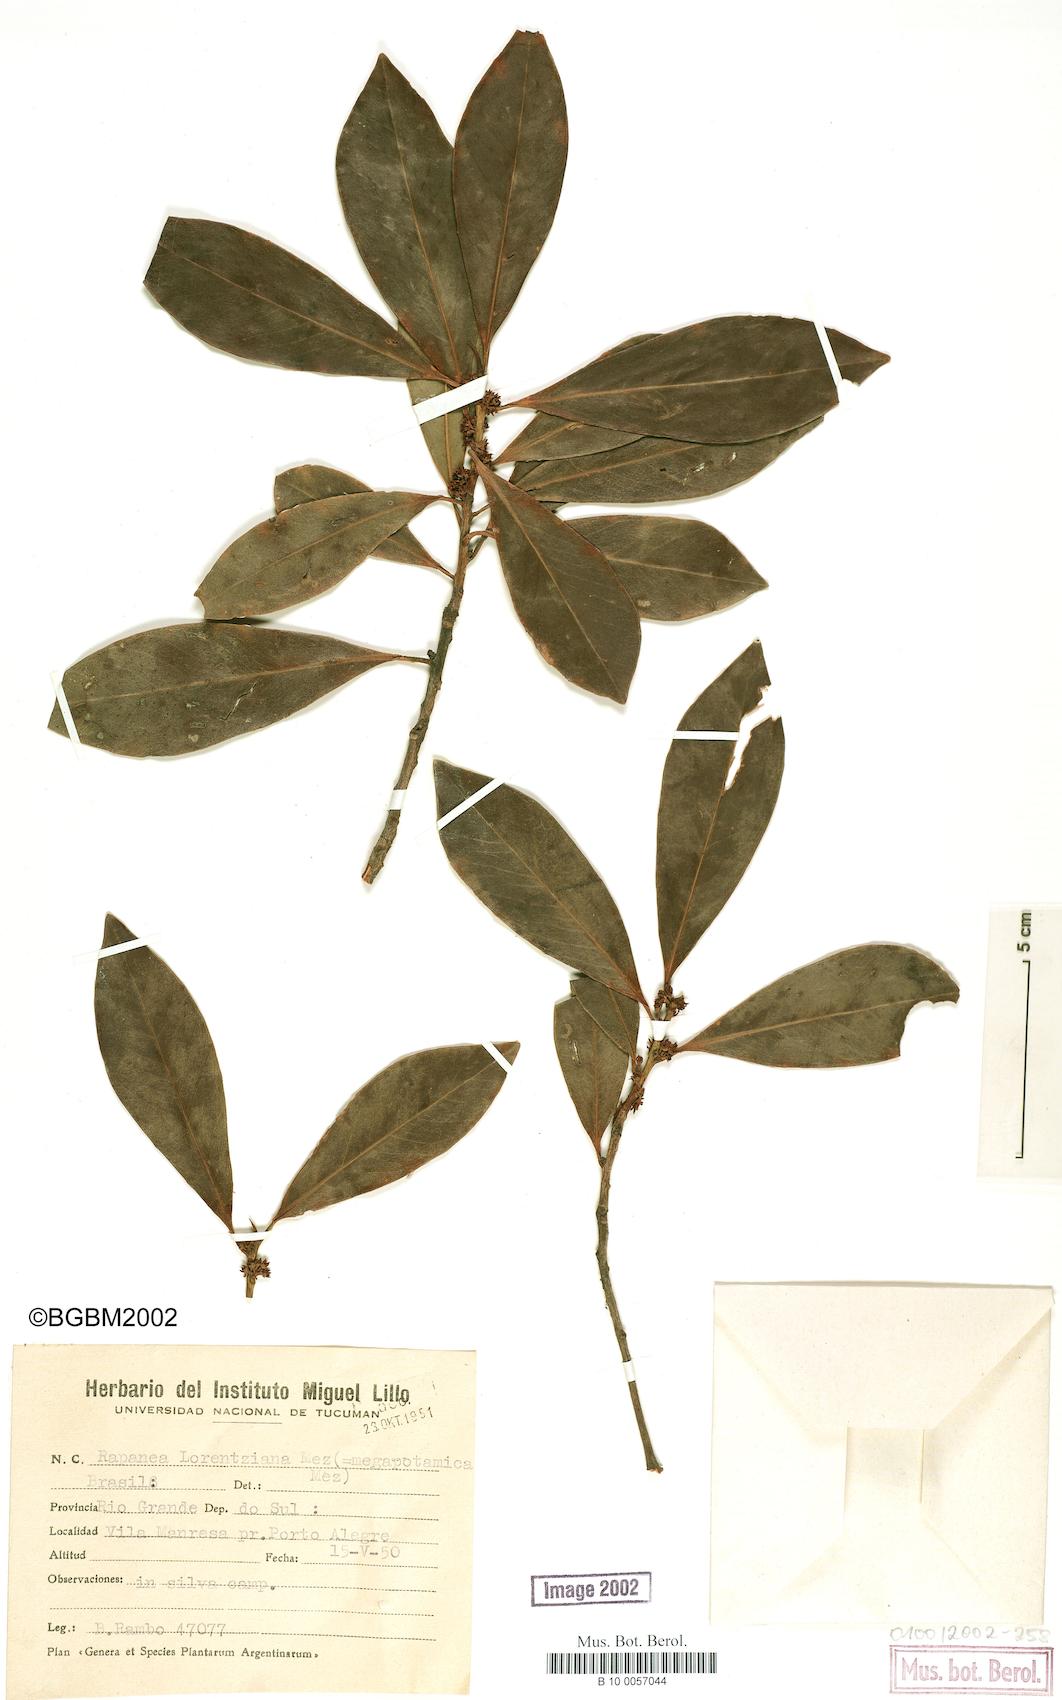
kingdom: Plantae
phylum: Tracheophyta
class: Magnoliopsida
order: Ericales
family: Primulaceae
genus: Myrsine
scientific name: Myrsine lorentziana
